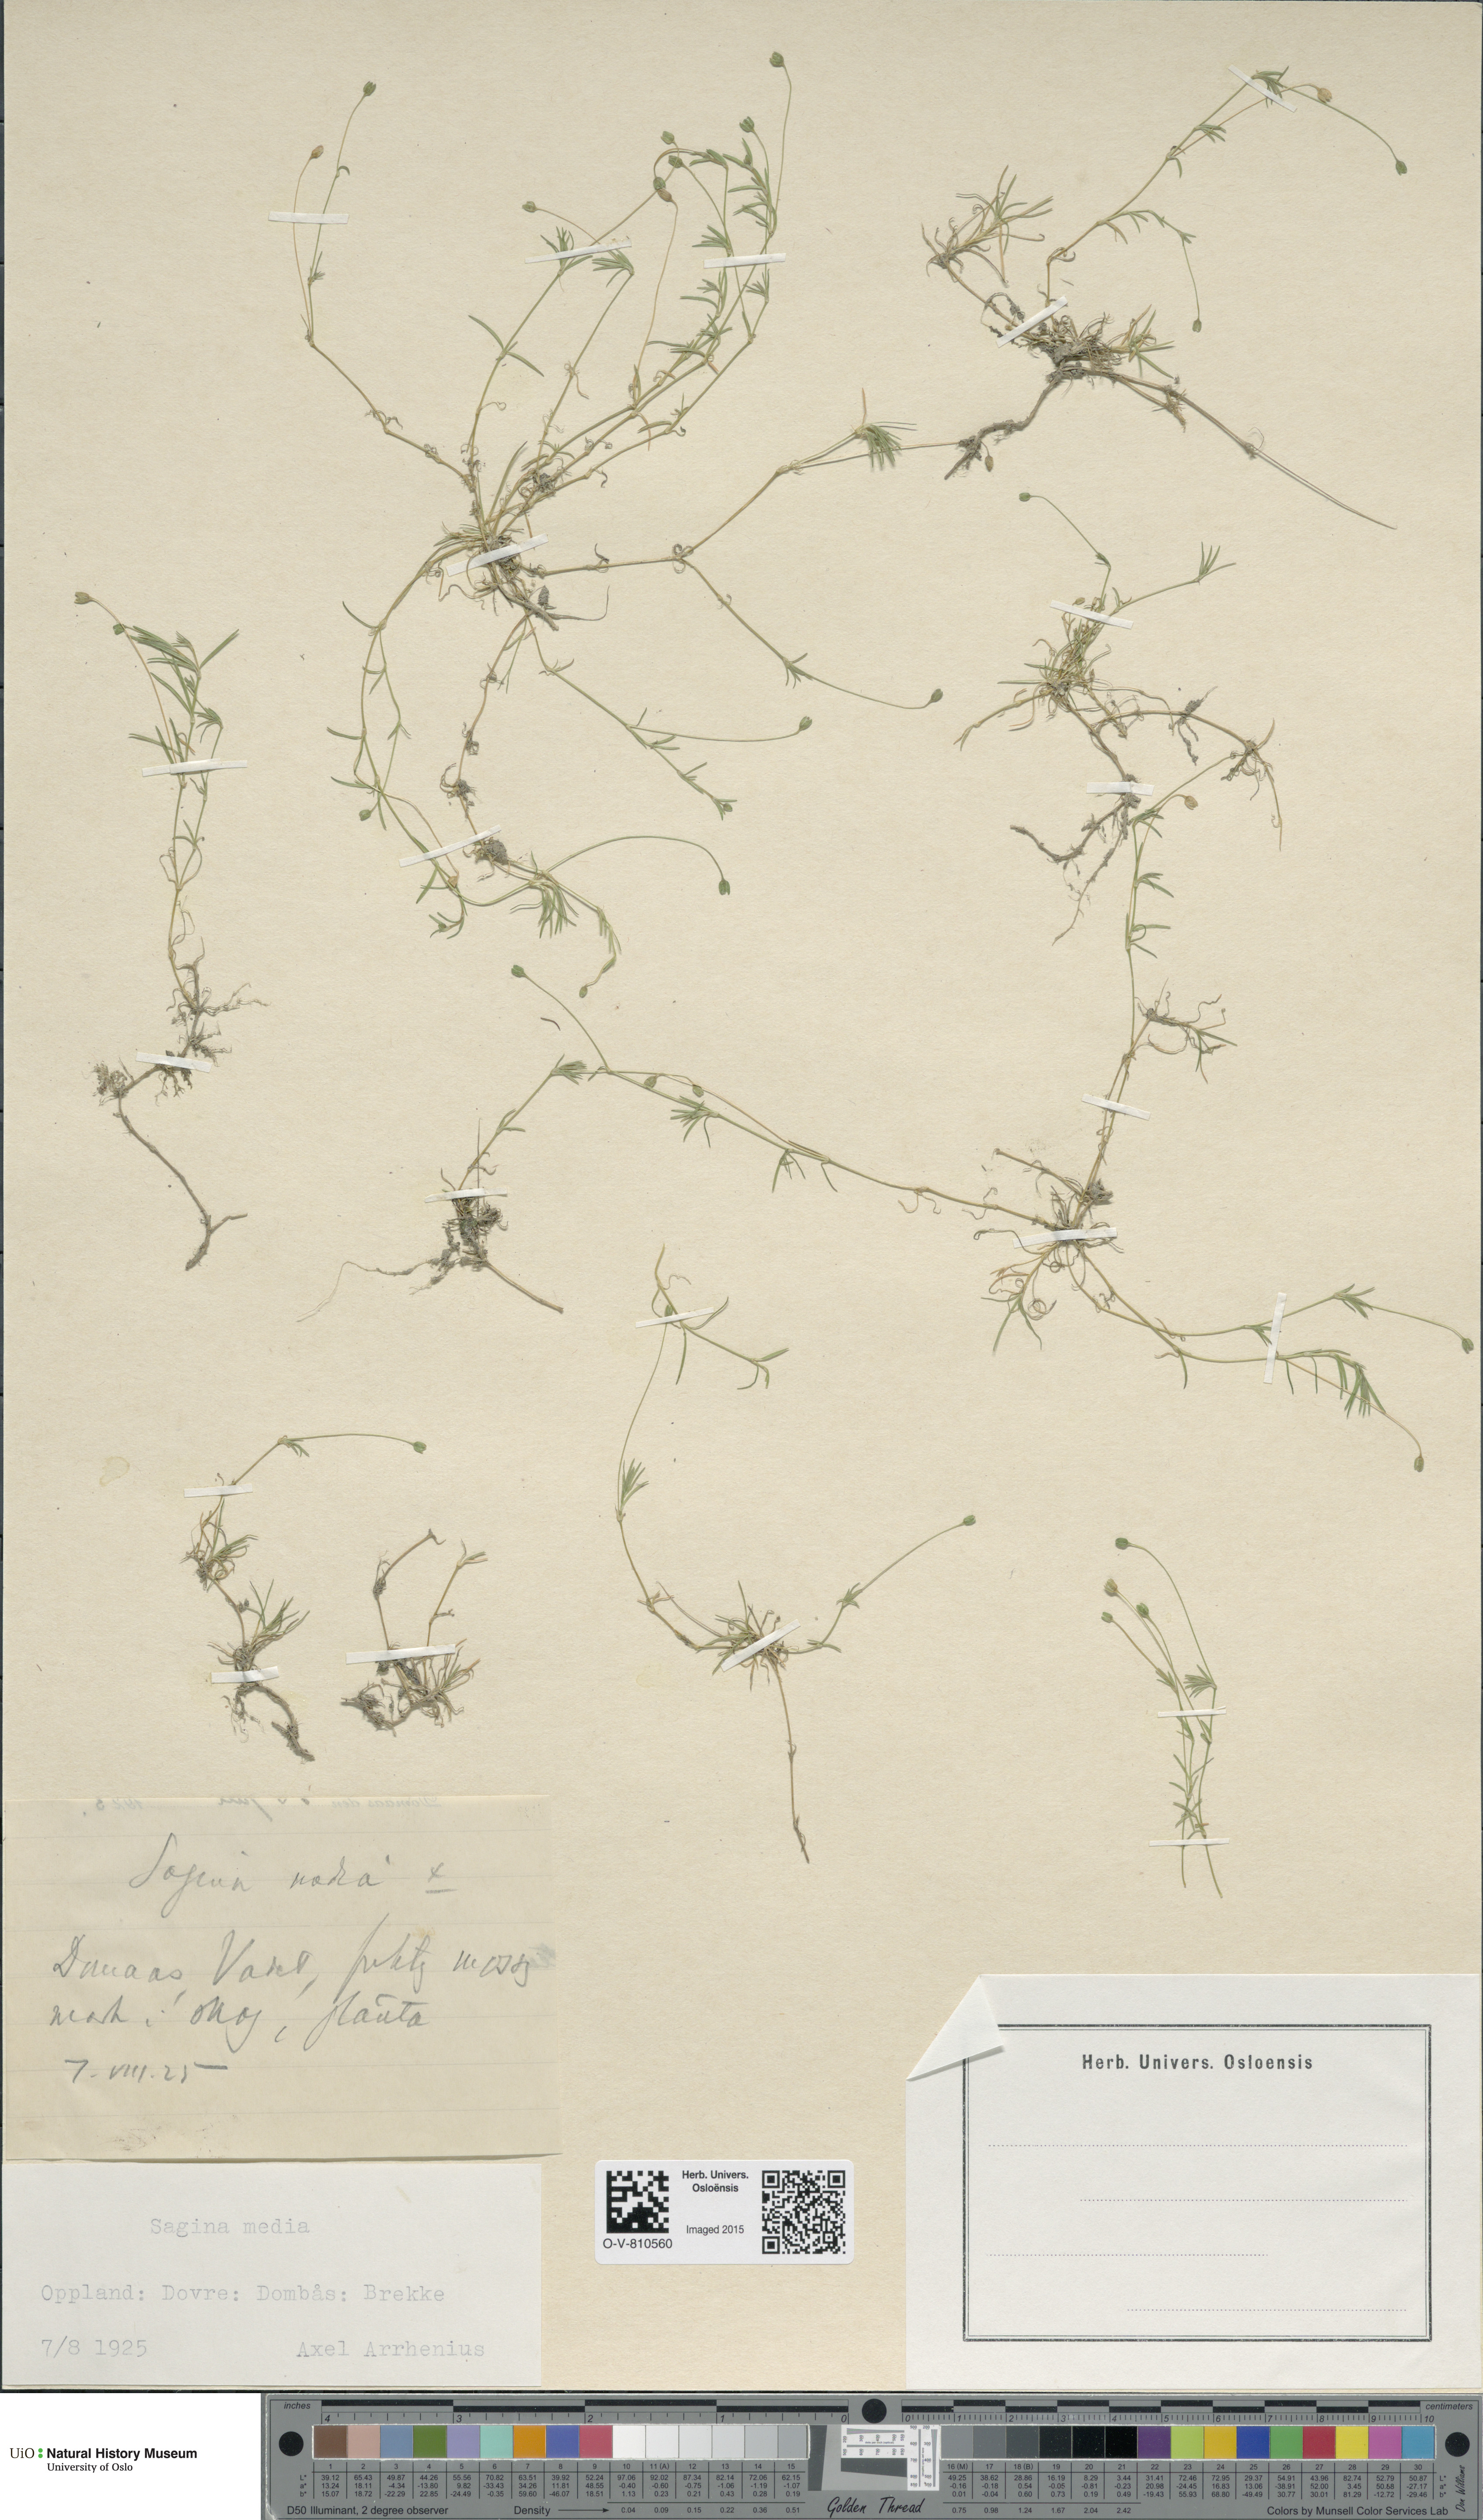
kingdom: Plantae
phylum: Tracheophyta
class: Magnoliopsida
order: Caryophyllales
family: Caryophyllaceae
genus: Sagina
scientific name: Sagina media
